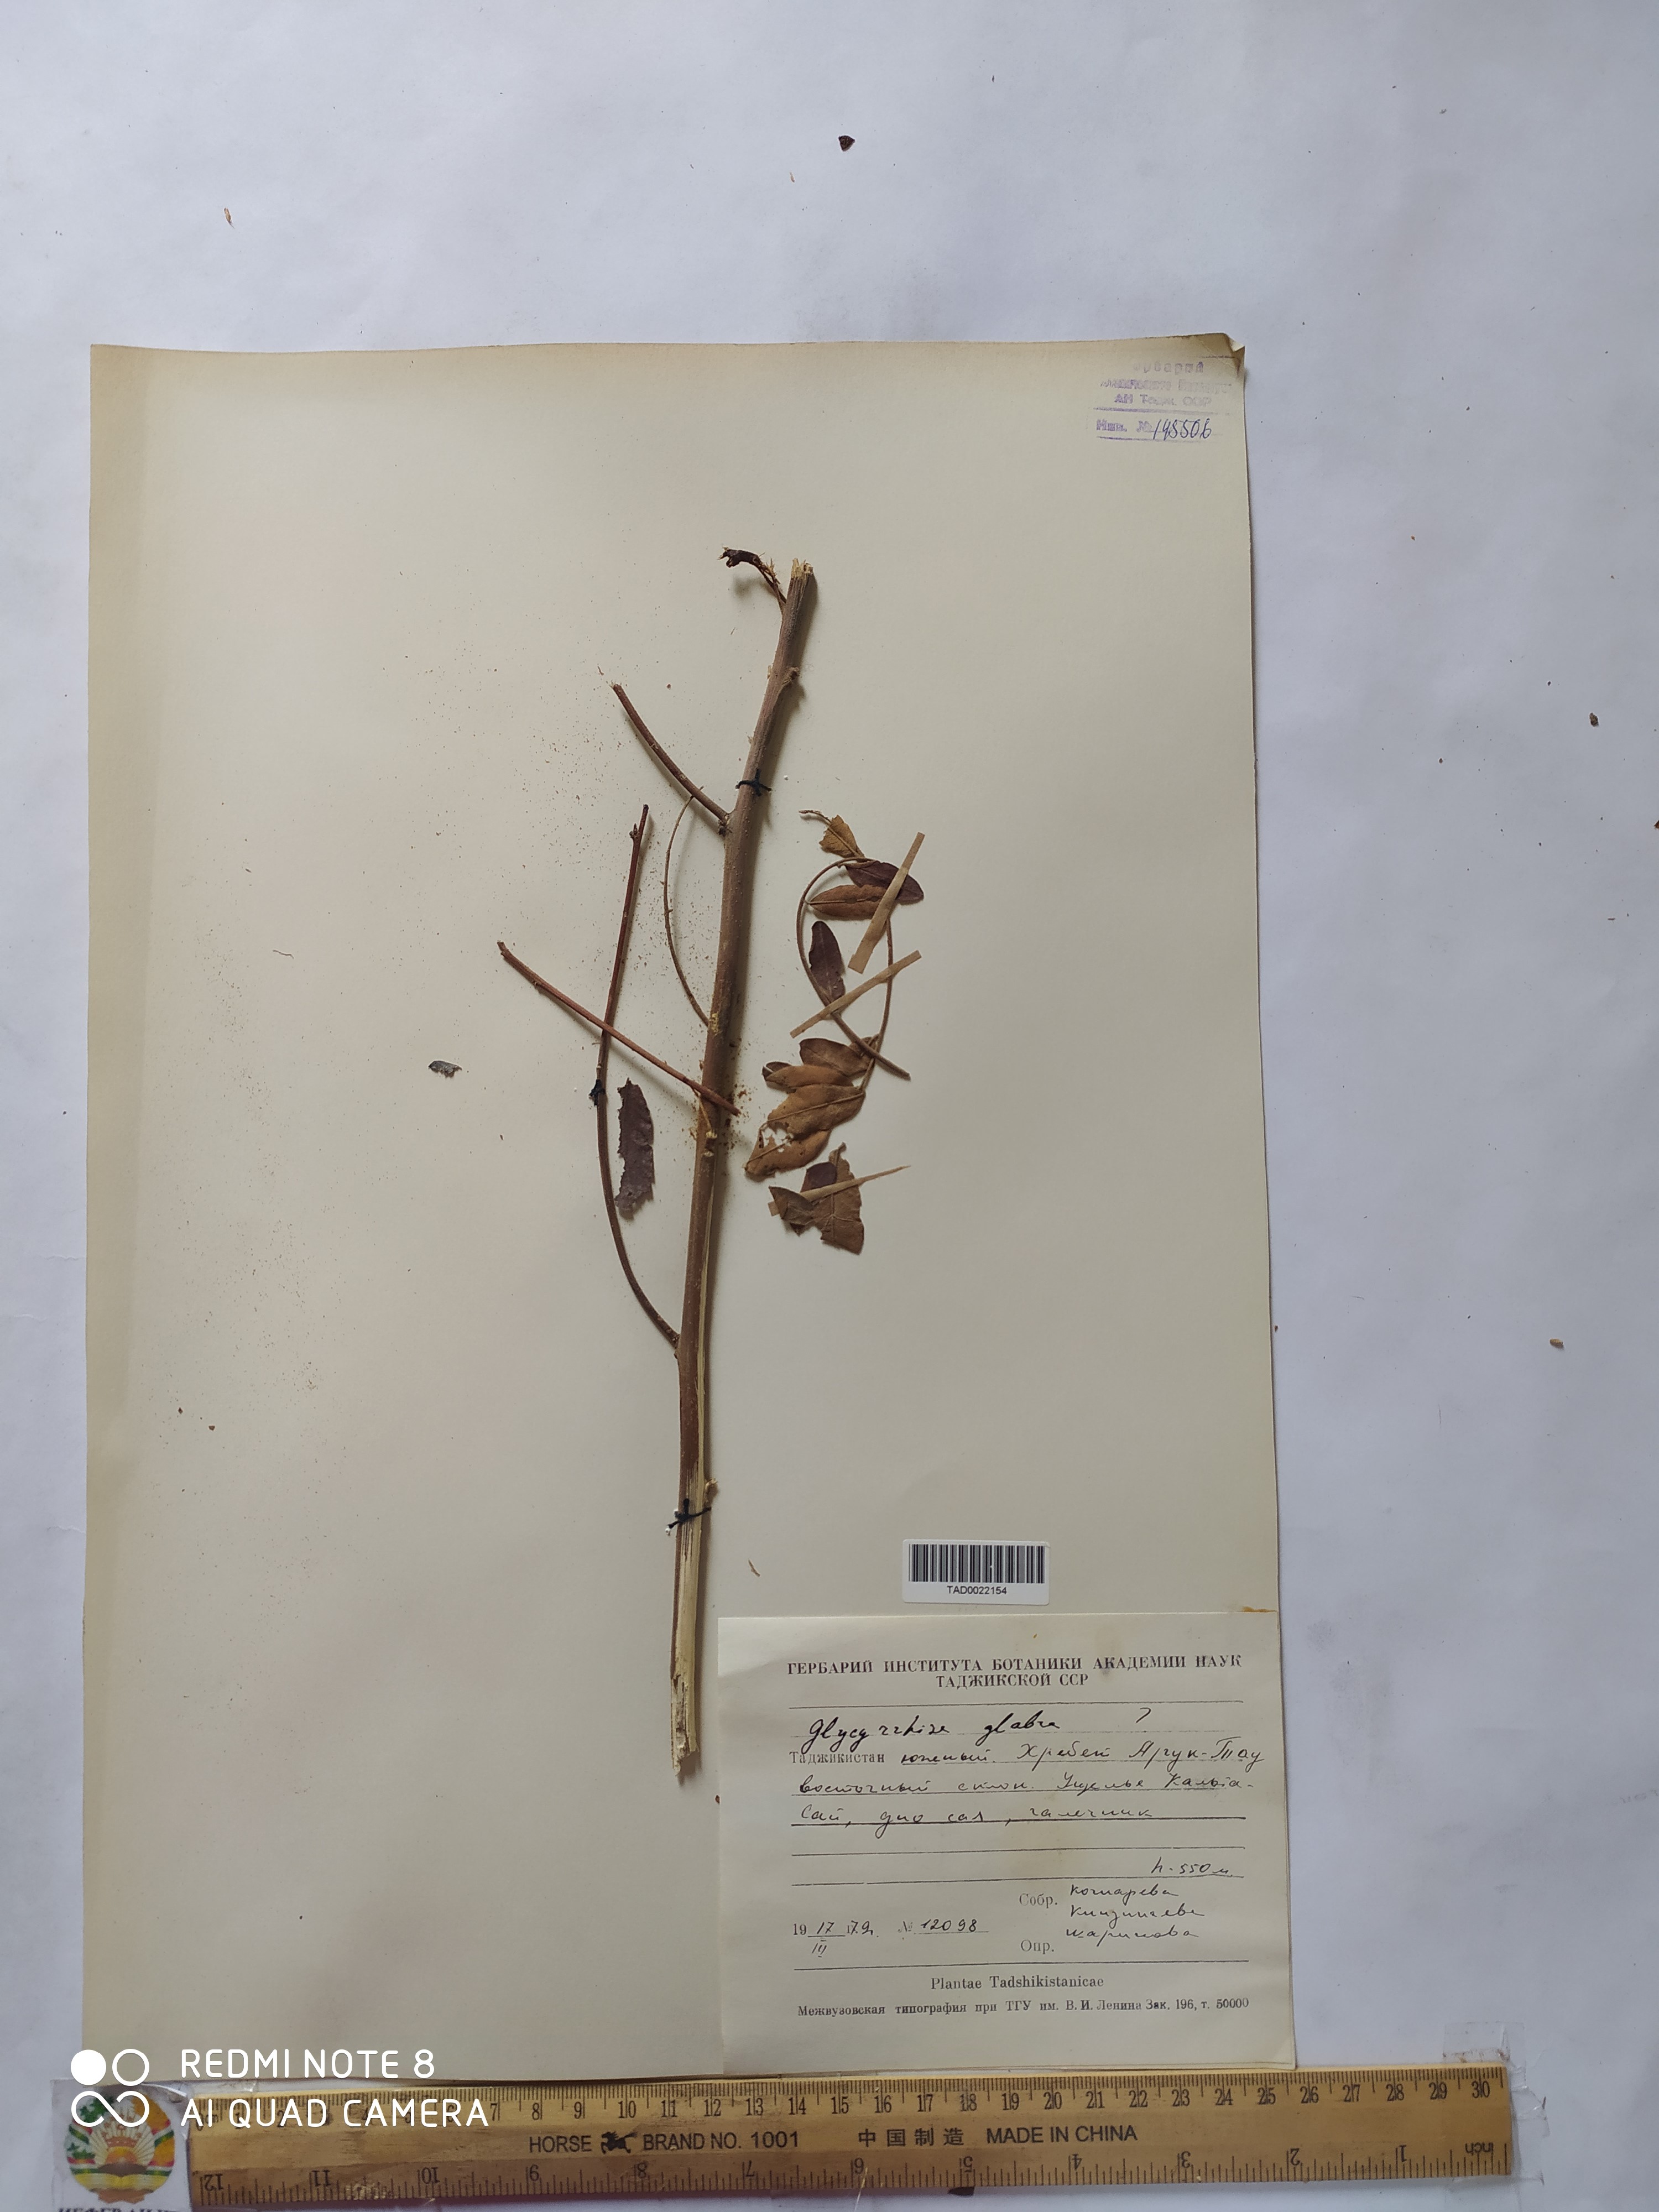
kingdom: Plantae
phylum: Tracheophyta
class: Magnoliopsida
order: Fabales
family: Fabaceae
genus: Glycyrrhiza
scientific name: Glycyrrhiza glabra
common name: Liquorice
